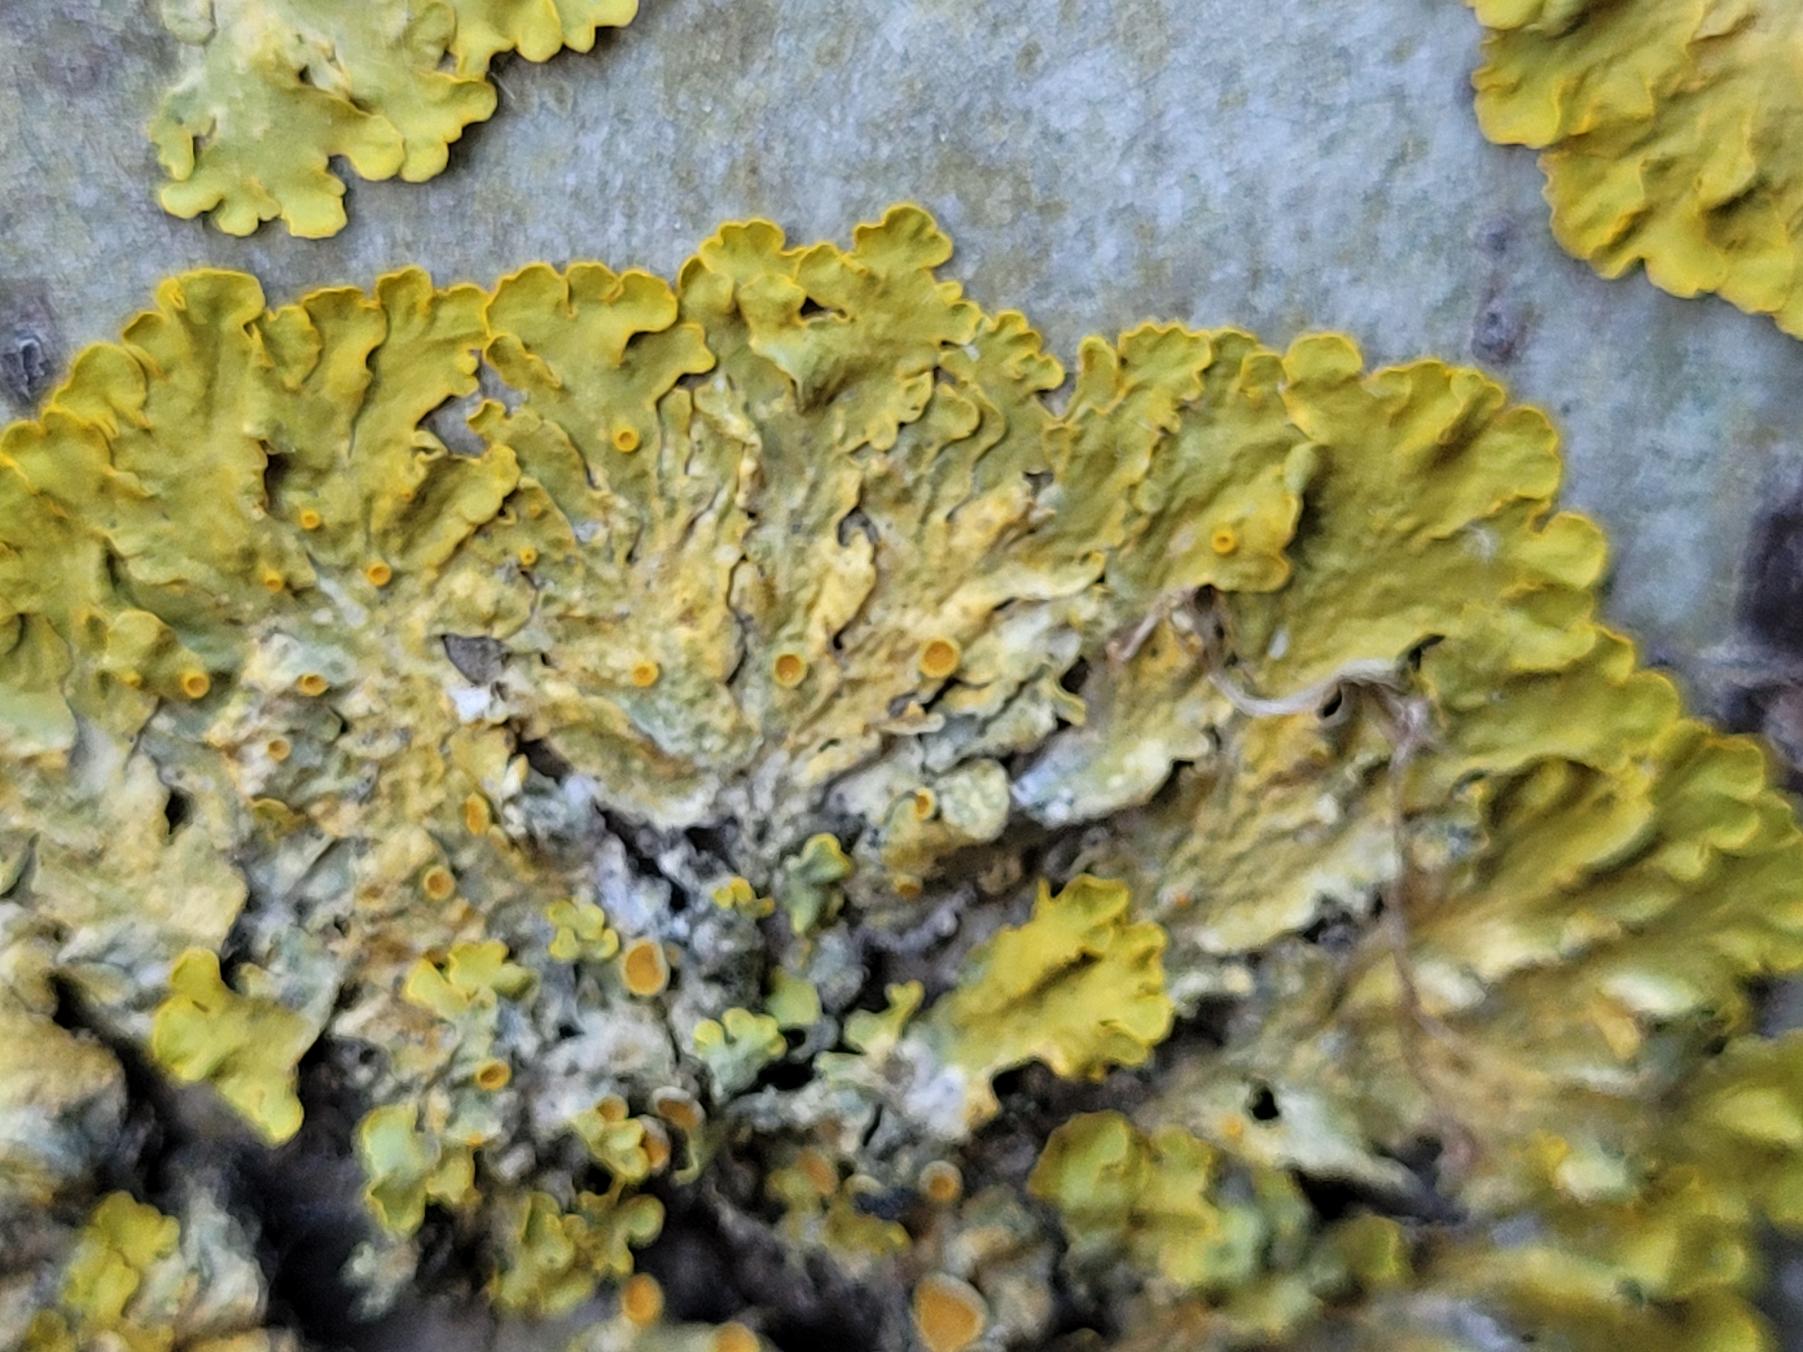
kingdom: Fungi
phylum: Ascomycota
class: Lecanoromycetes
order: Teloschistales
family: Teloschistaceae
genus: Xanthoria
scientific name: Xanthoria parietina
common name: Almindelig væggelav
